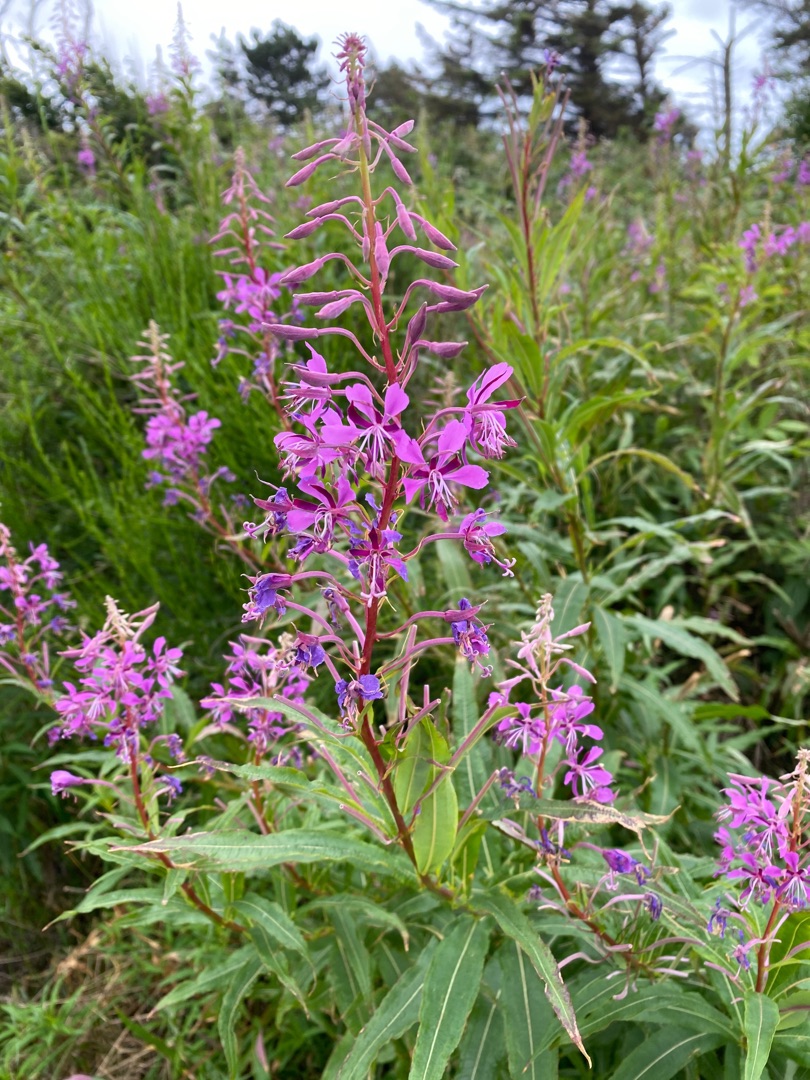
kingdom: Plantae
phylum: Tracheophyta
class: Magnoliopsida
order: Myrtales
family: Onagraceae
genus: Chamaenerion
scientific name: Chamaenerion angustifolium
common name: Gederams
